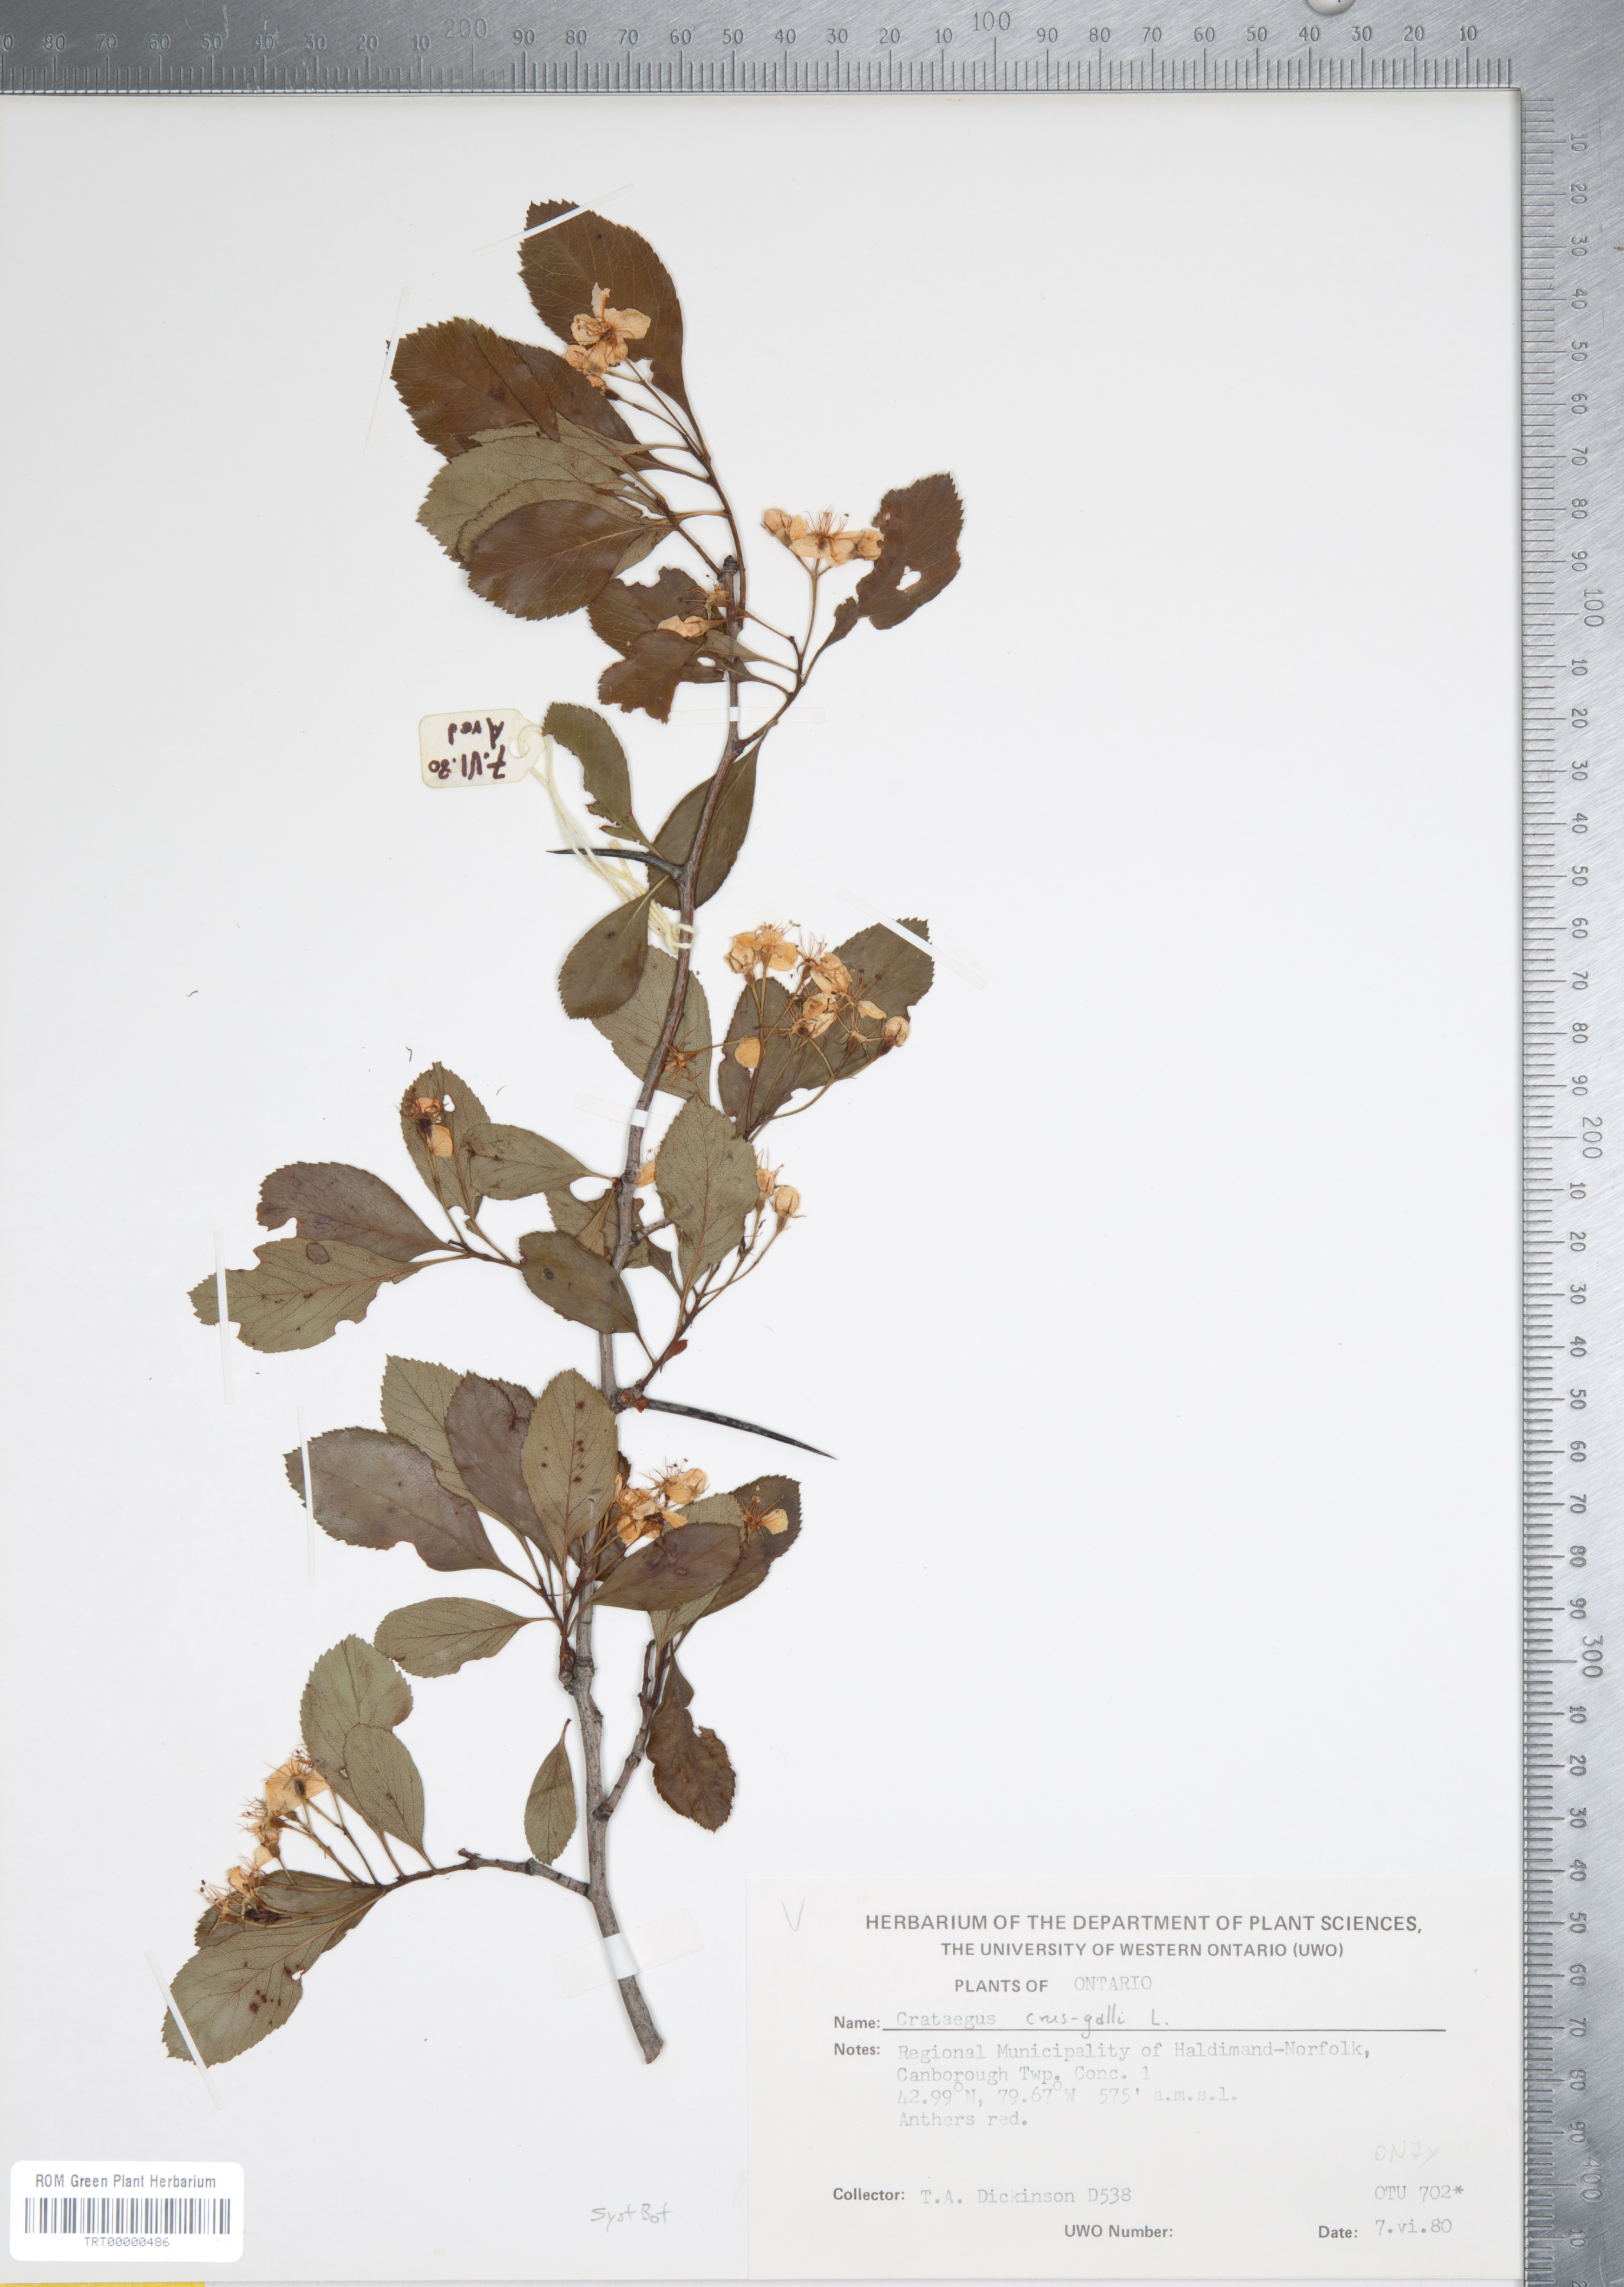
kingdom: Plantae
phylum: Tracheophyta
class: Magnoliopsida
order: Rosales
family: Rosaceae
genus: Crataegus
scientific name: Crataegus crus-galli
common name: Cockspurthorn
